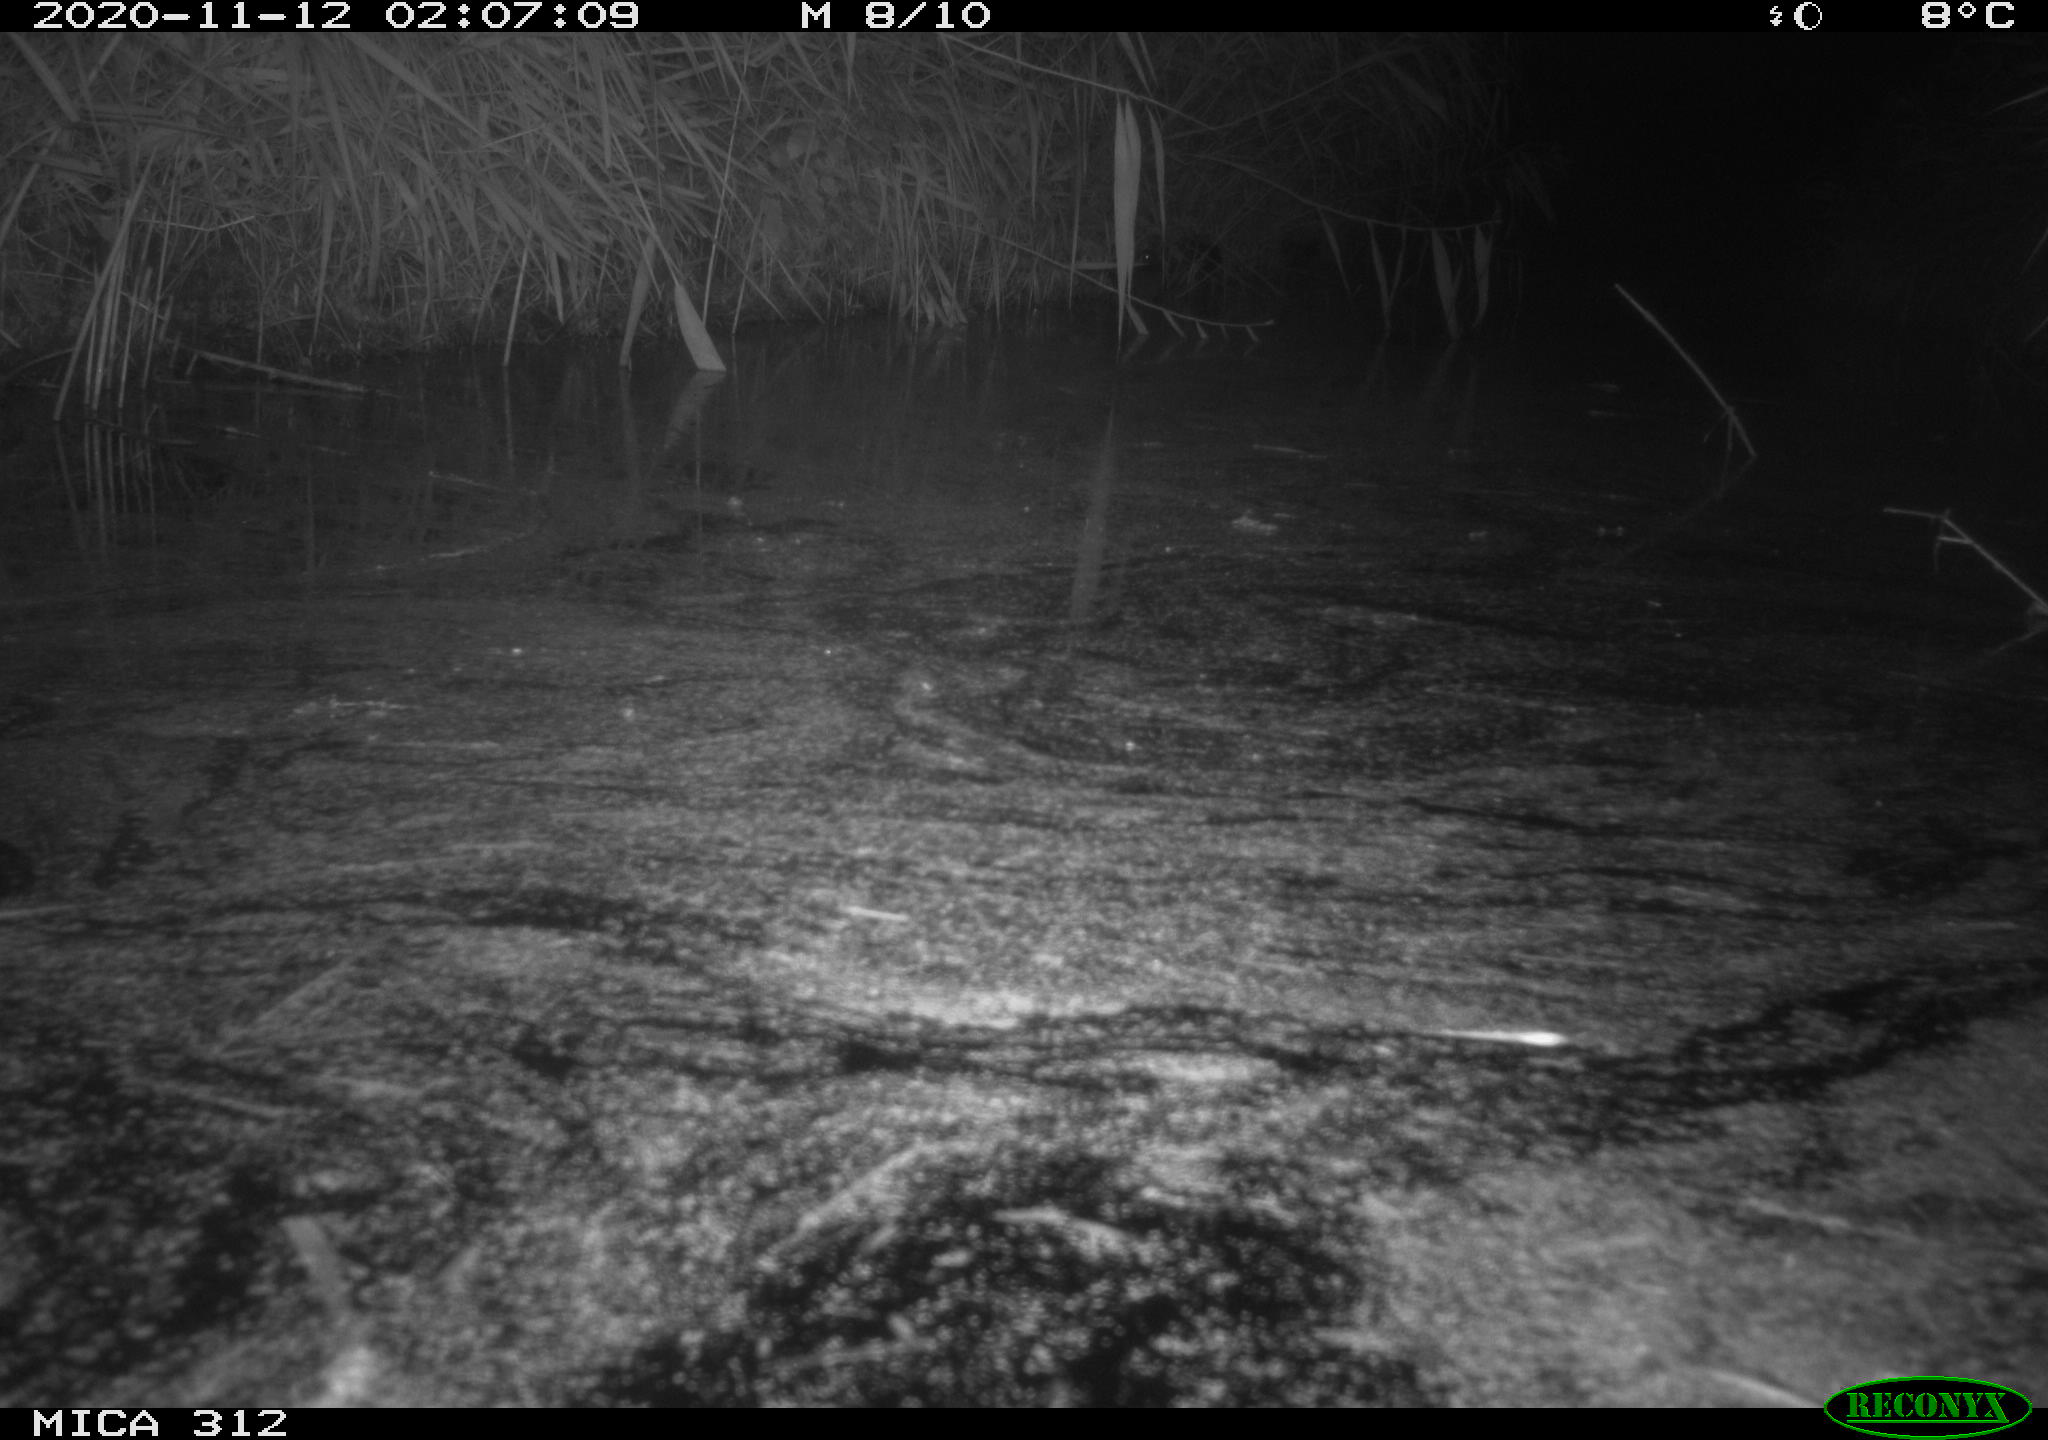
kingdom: Animalia
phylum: Chordata
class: Aves
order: Gruiformes
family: Rallidae
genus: Fulica
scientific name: Fulica atra
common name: Eurasian coot
